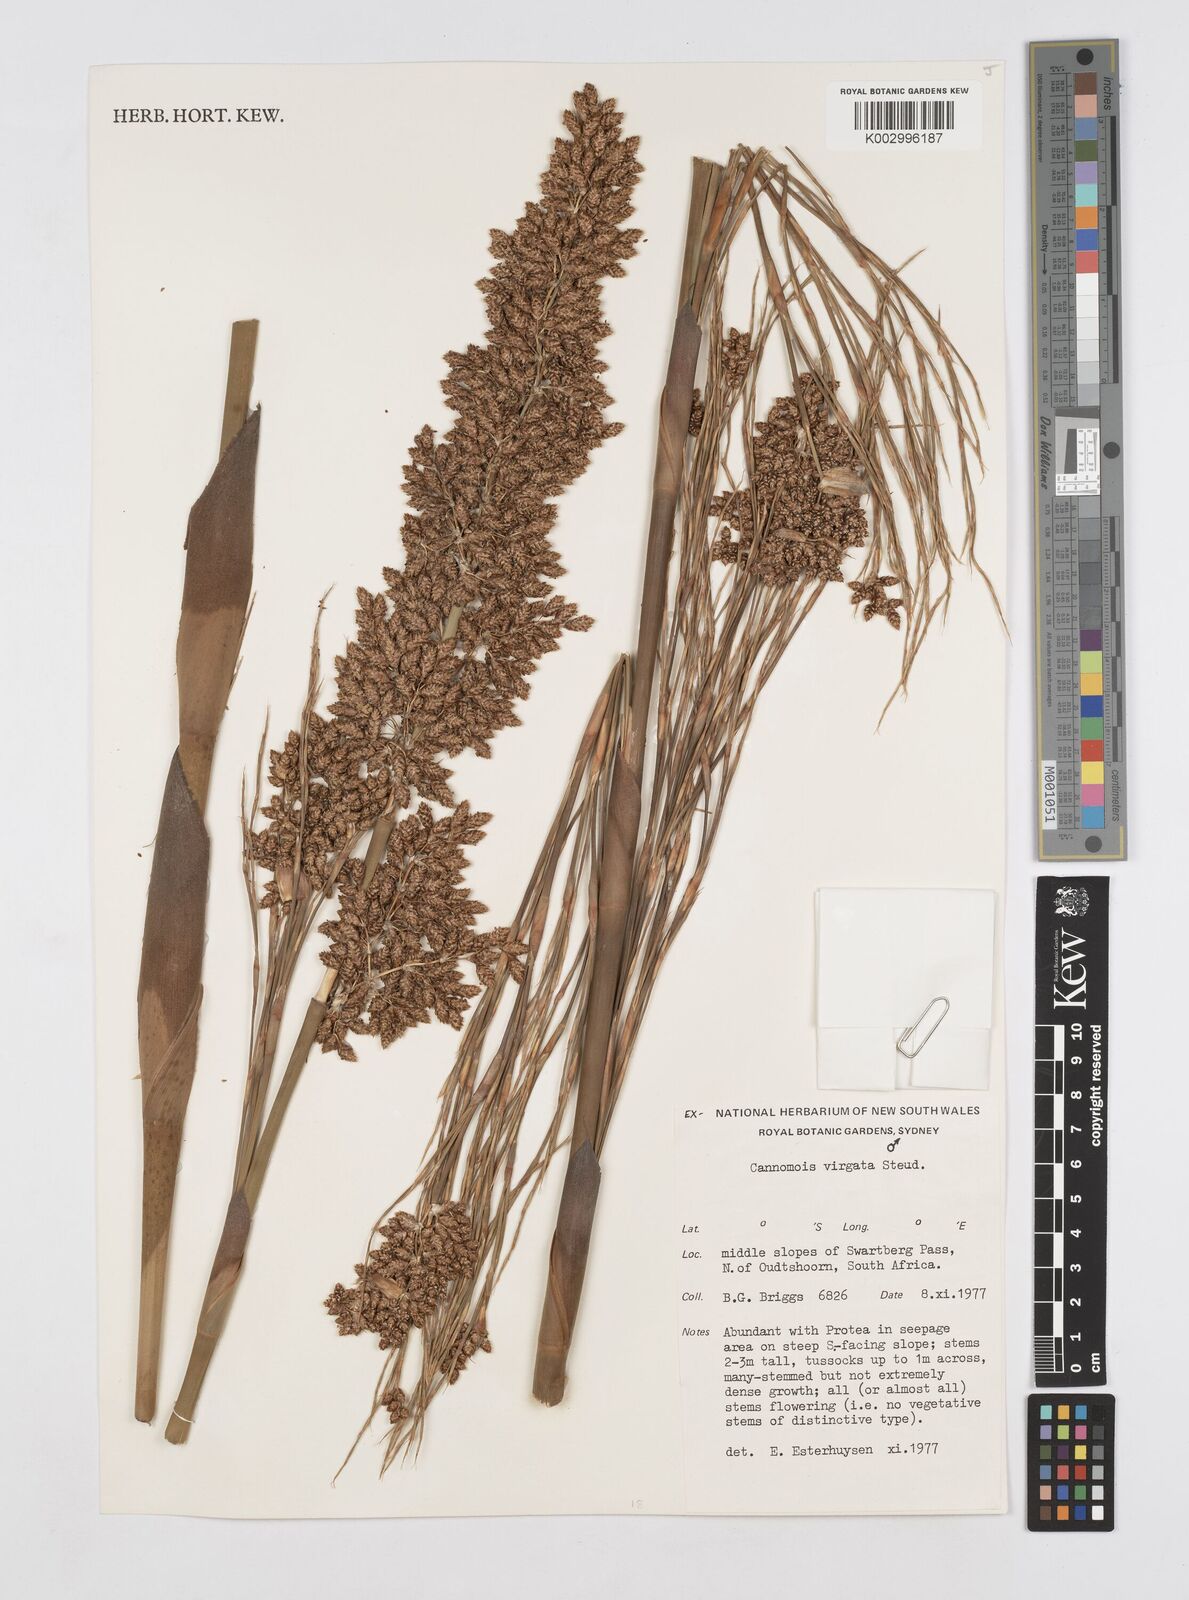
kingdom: Plantae
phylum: Tracheophyta
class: Liliopsida
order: Poales
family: Restionaceae
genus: Cannomois
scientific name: Cannomois virgata
